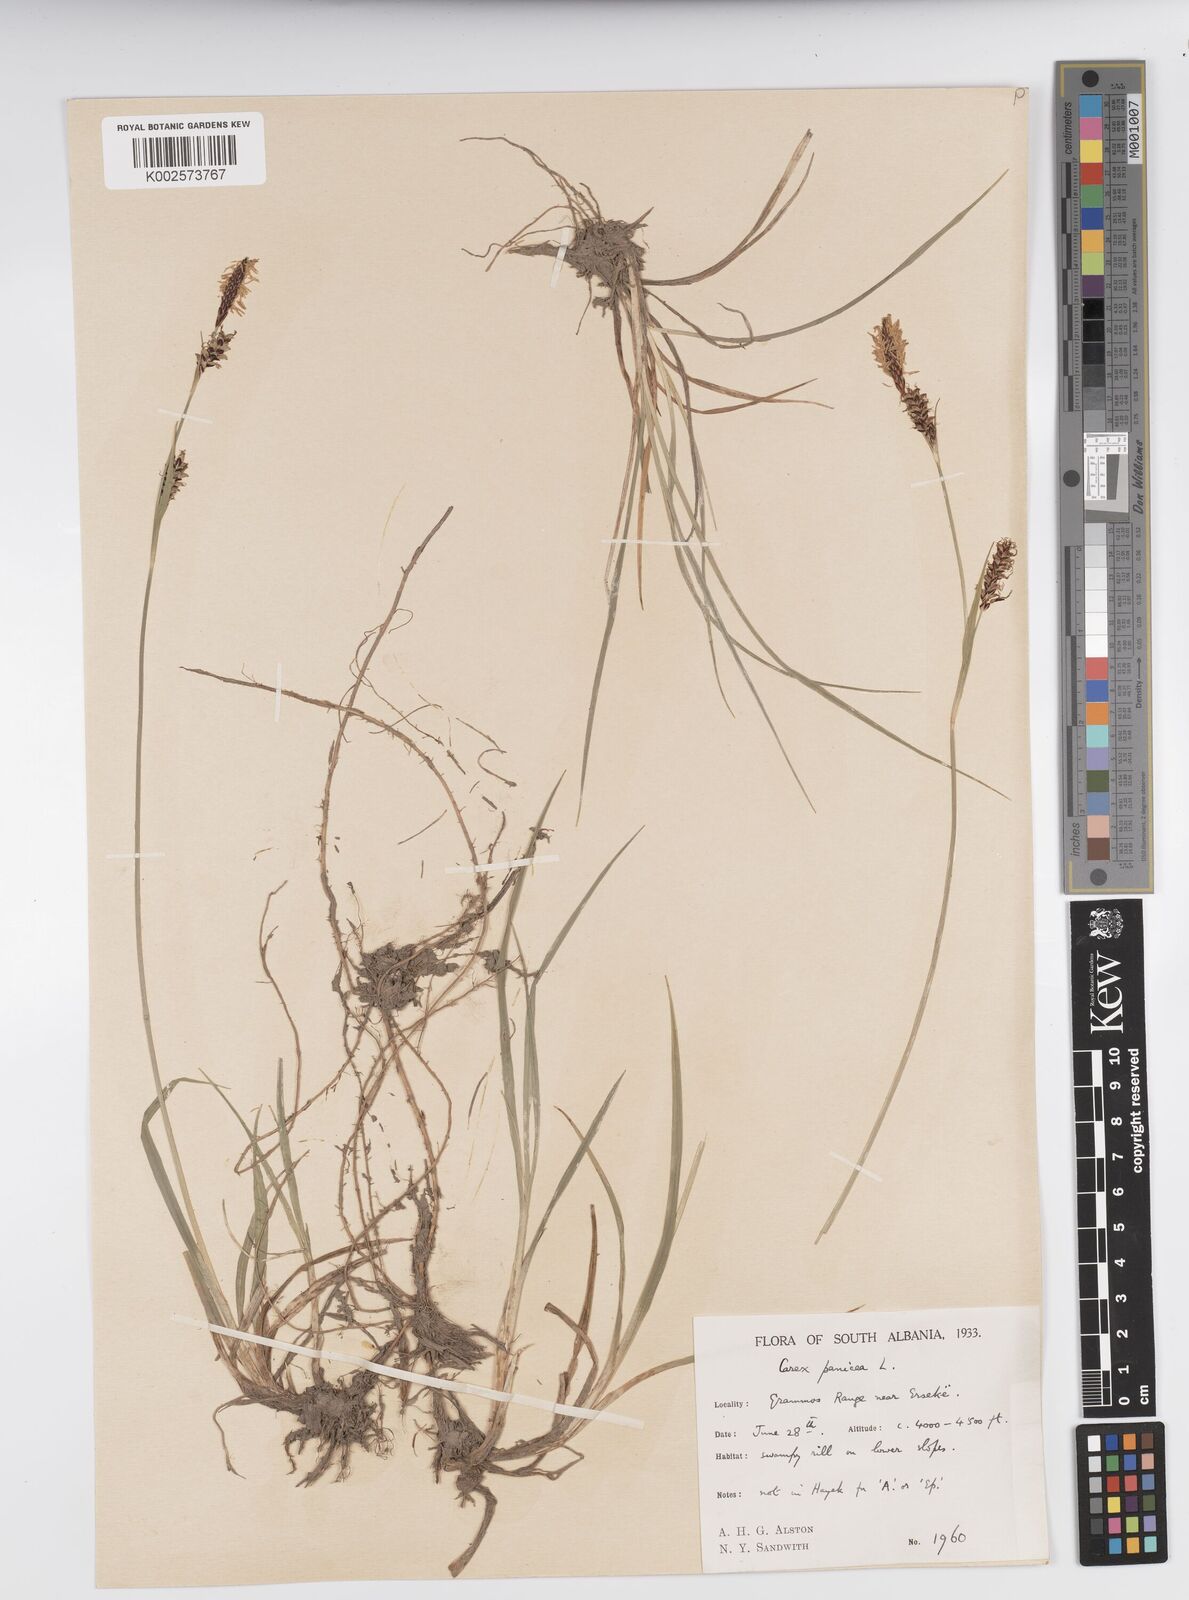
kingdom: Plantae
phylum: Tracheophyta
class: Liliopsida
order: Poales
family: Cyperaceae
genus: Carex
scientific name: Carex panicea
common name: Carnation sedge
